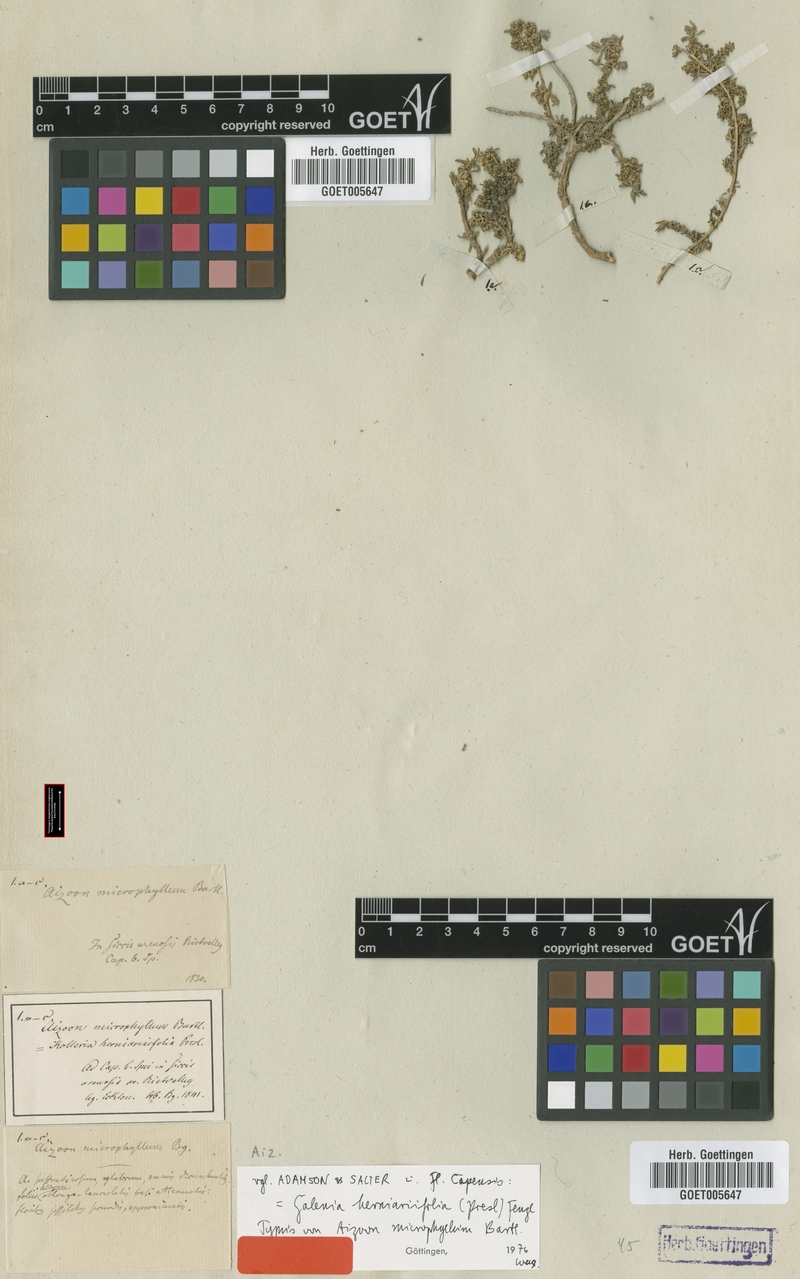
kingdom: Plantae
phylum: Tracheophyta
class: Magnoliopsida
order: Caryophyllales
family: Aizoaceae
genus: Aizoon
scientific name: Aizoon herniariifolium
